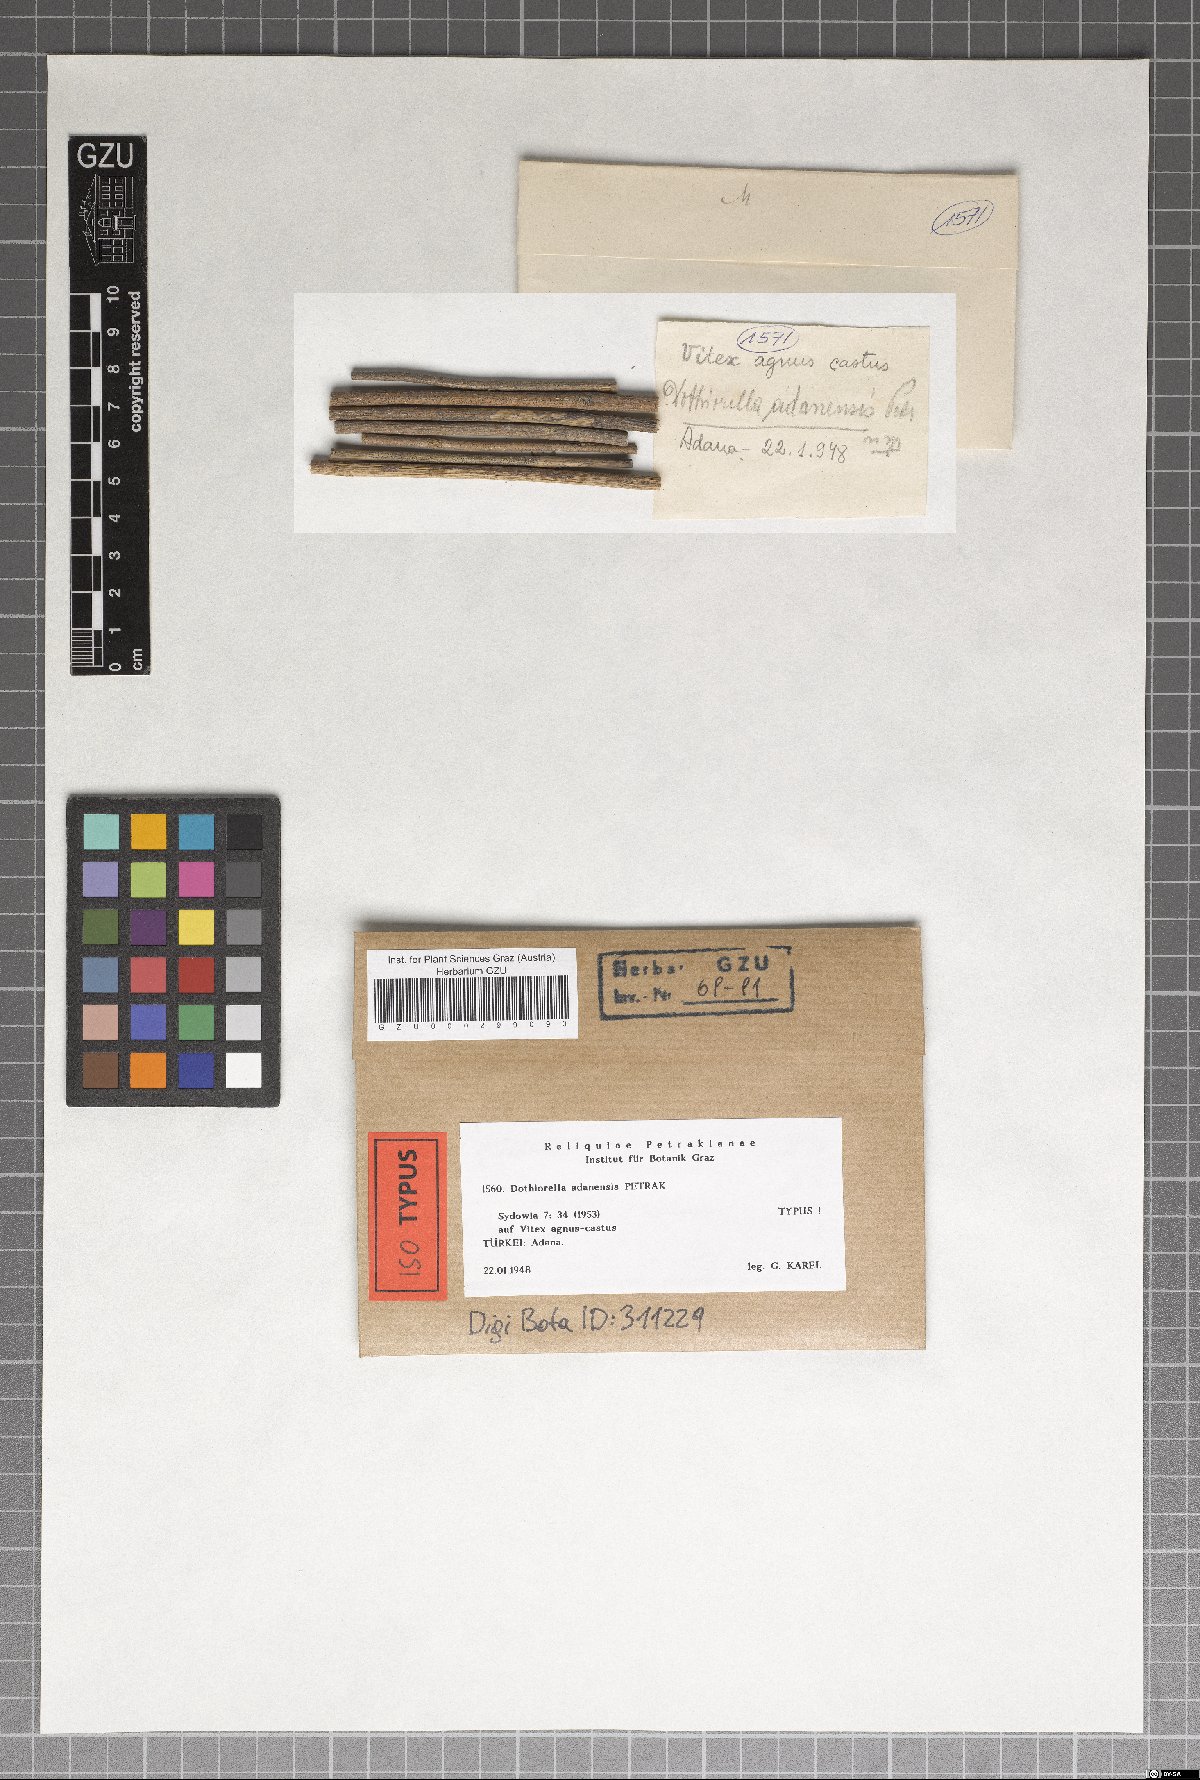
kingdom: Fungi
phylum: Ascomycota
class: Dothideomycetes
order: Botryosphaeriales
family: Botryosphaeriaceae
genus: Dothiorella
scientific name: Dothiorella adanensis
